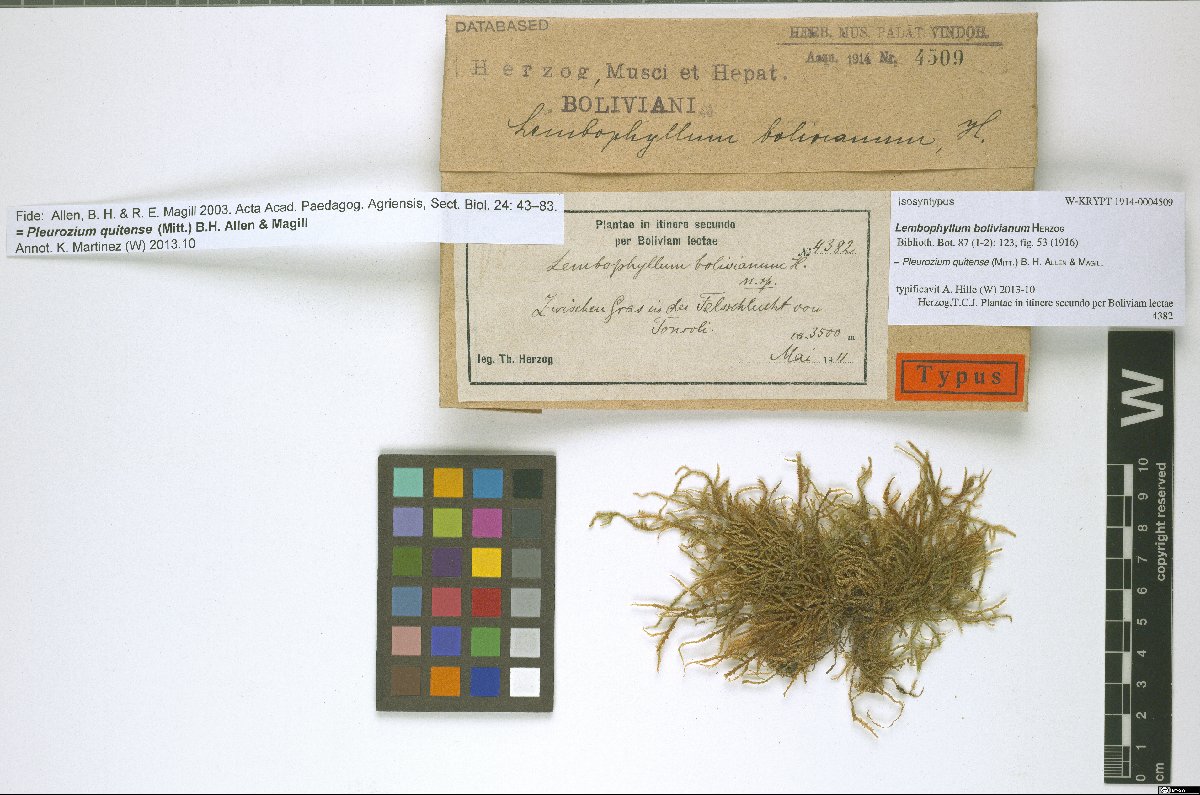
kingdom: Plantae
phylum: Bryophyta
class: Bryopsida
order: Hypnales
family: Hylocomiaceae
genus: Pleurozium
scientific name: Pleurozium quitense
